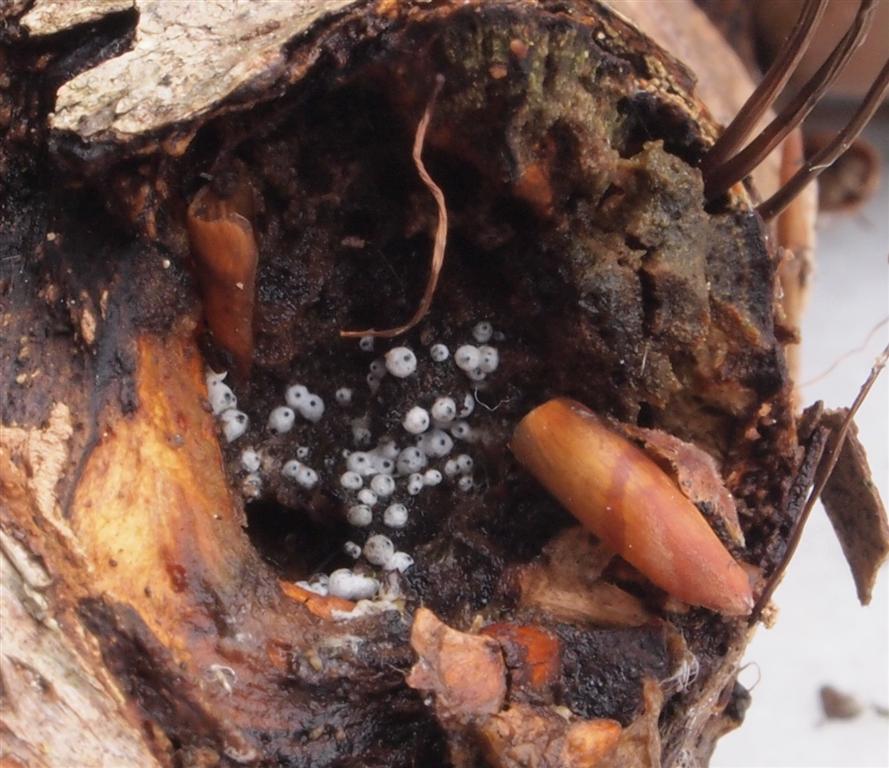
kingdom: Fungi
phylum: Ascomycota
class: Sordariomycetes
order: Sordariales
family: Lasiosphaeriaceae
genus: Lasiosphaeria
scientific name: Lasiosphaeria ovina
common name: fåre-kernesvamp
